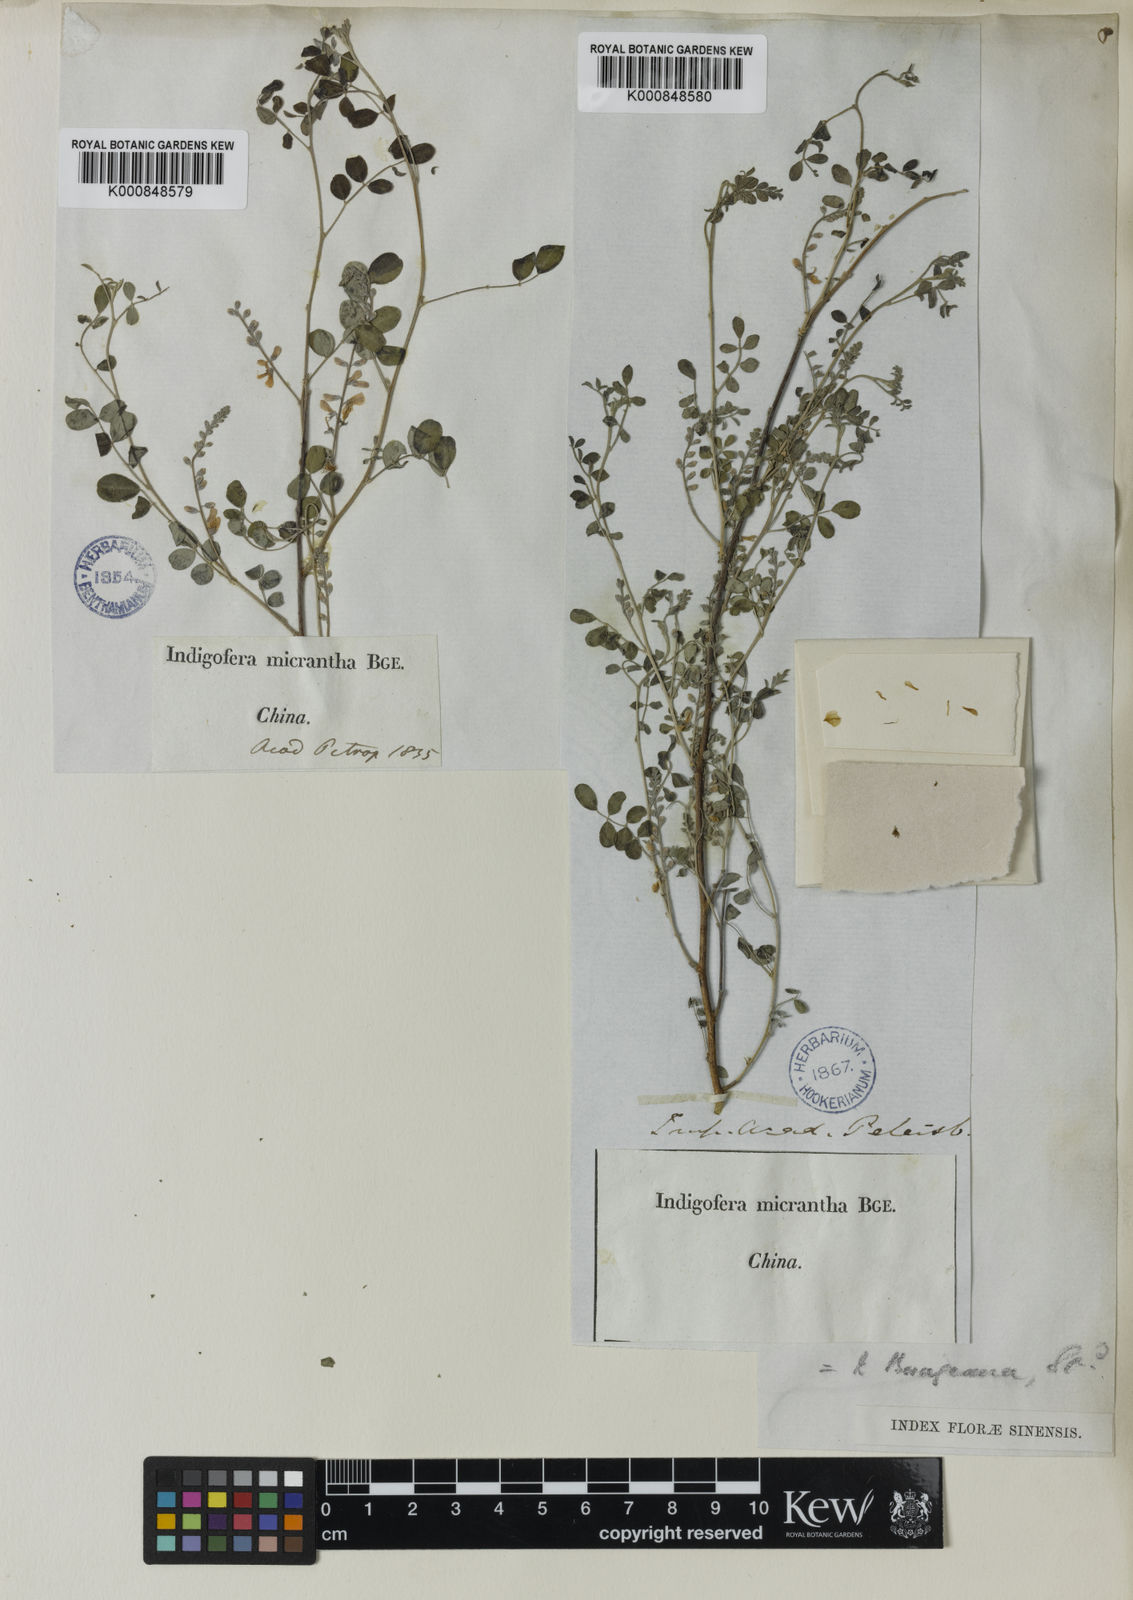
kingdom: Plantae
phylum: Tracheophyta
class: Magnoliopsida
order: Fabales
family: Fabaceae
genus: Indigofera
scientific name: Indigofera
